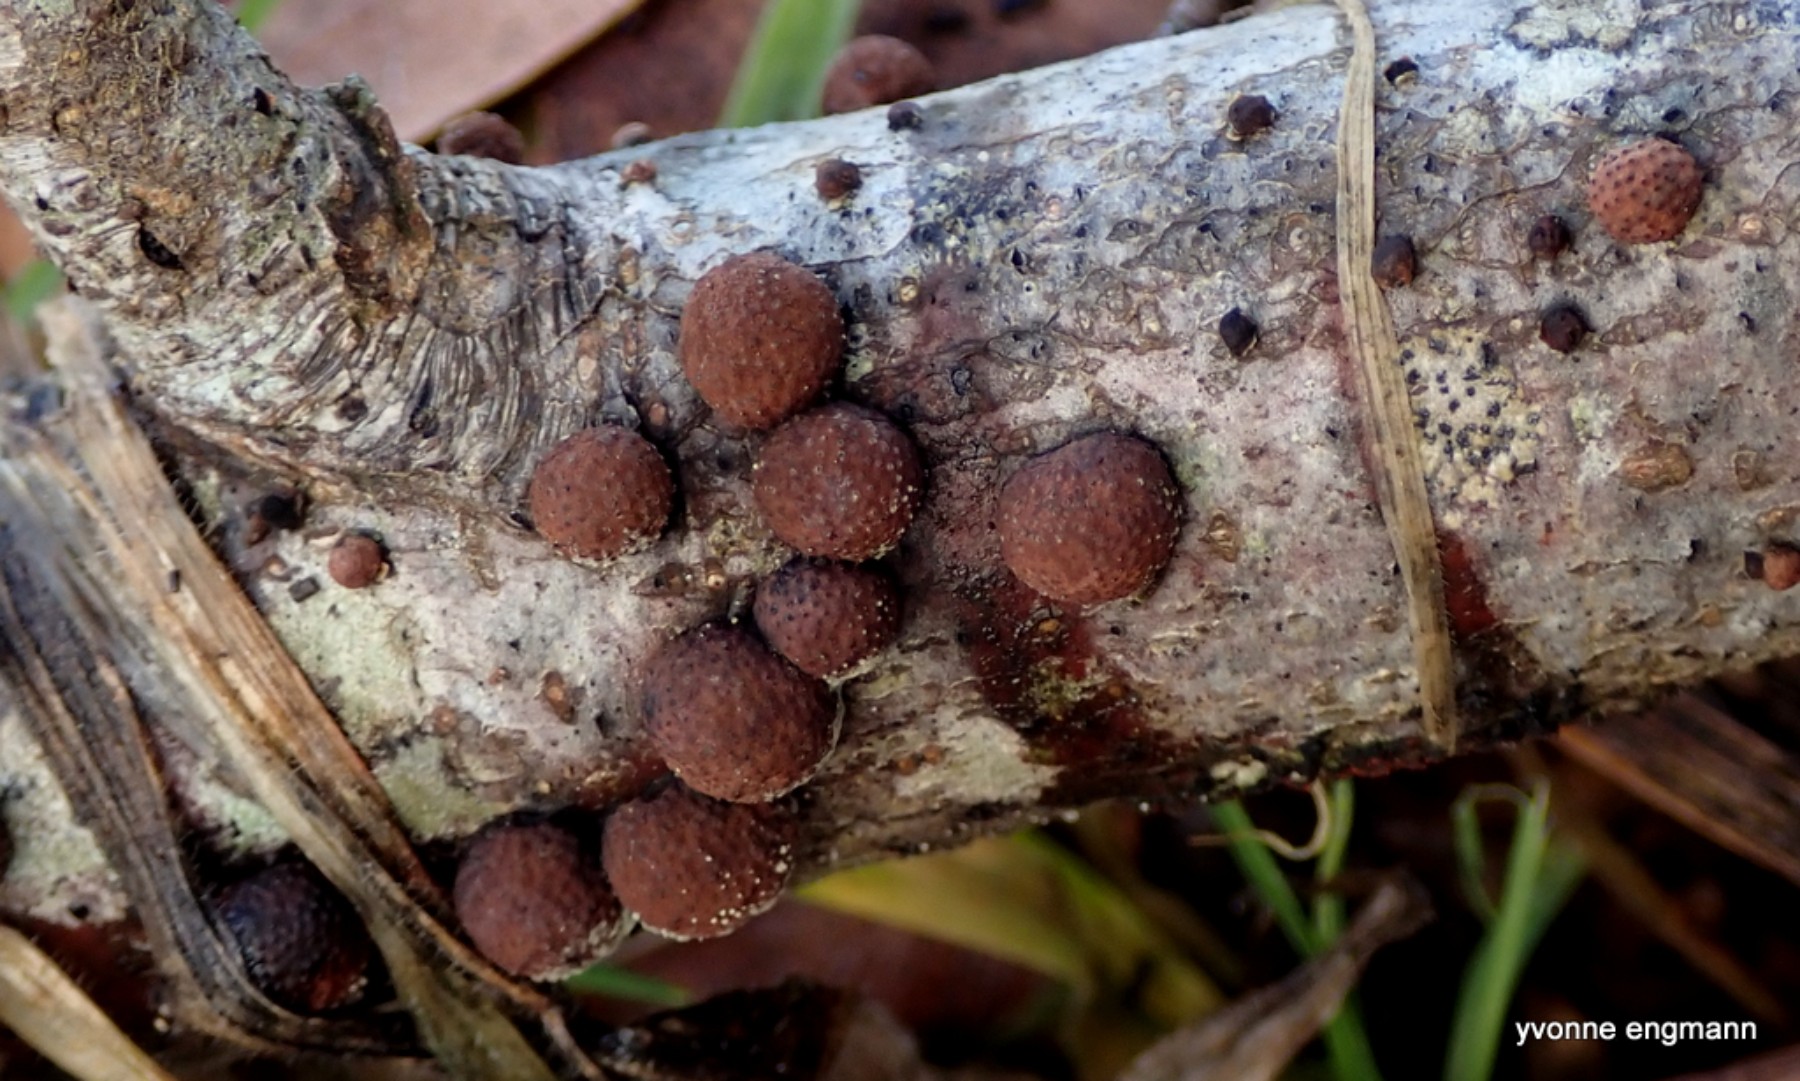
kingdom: Fungi
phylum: Ascomycota
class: Sordariomycetes
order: Xylariales
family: Hypoxylaceae
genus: Hypoxylon
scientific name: Hypoxylon howeanum
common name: halvkugleformet kulbær
